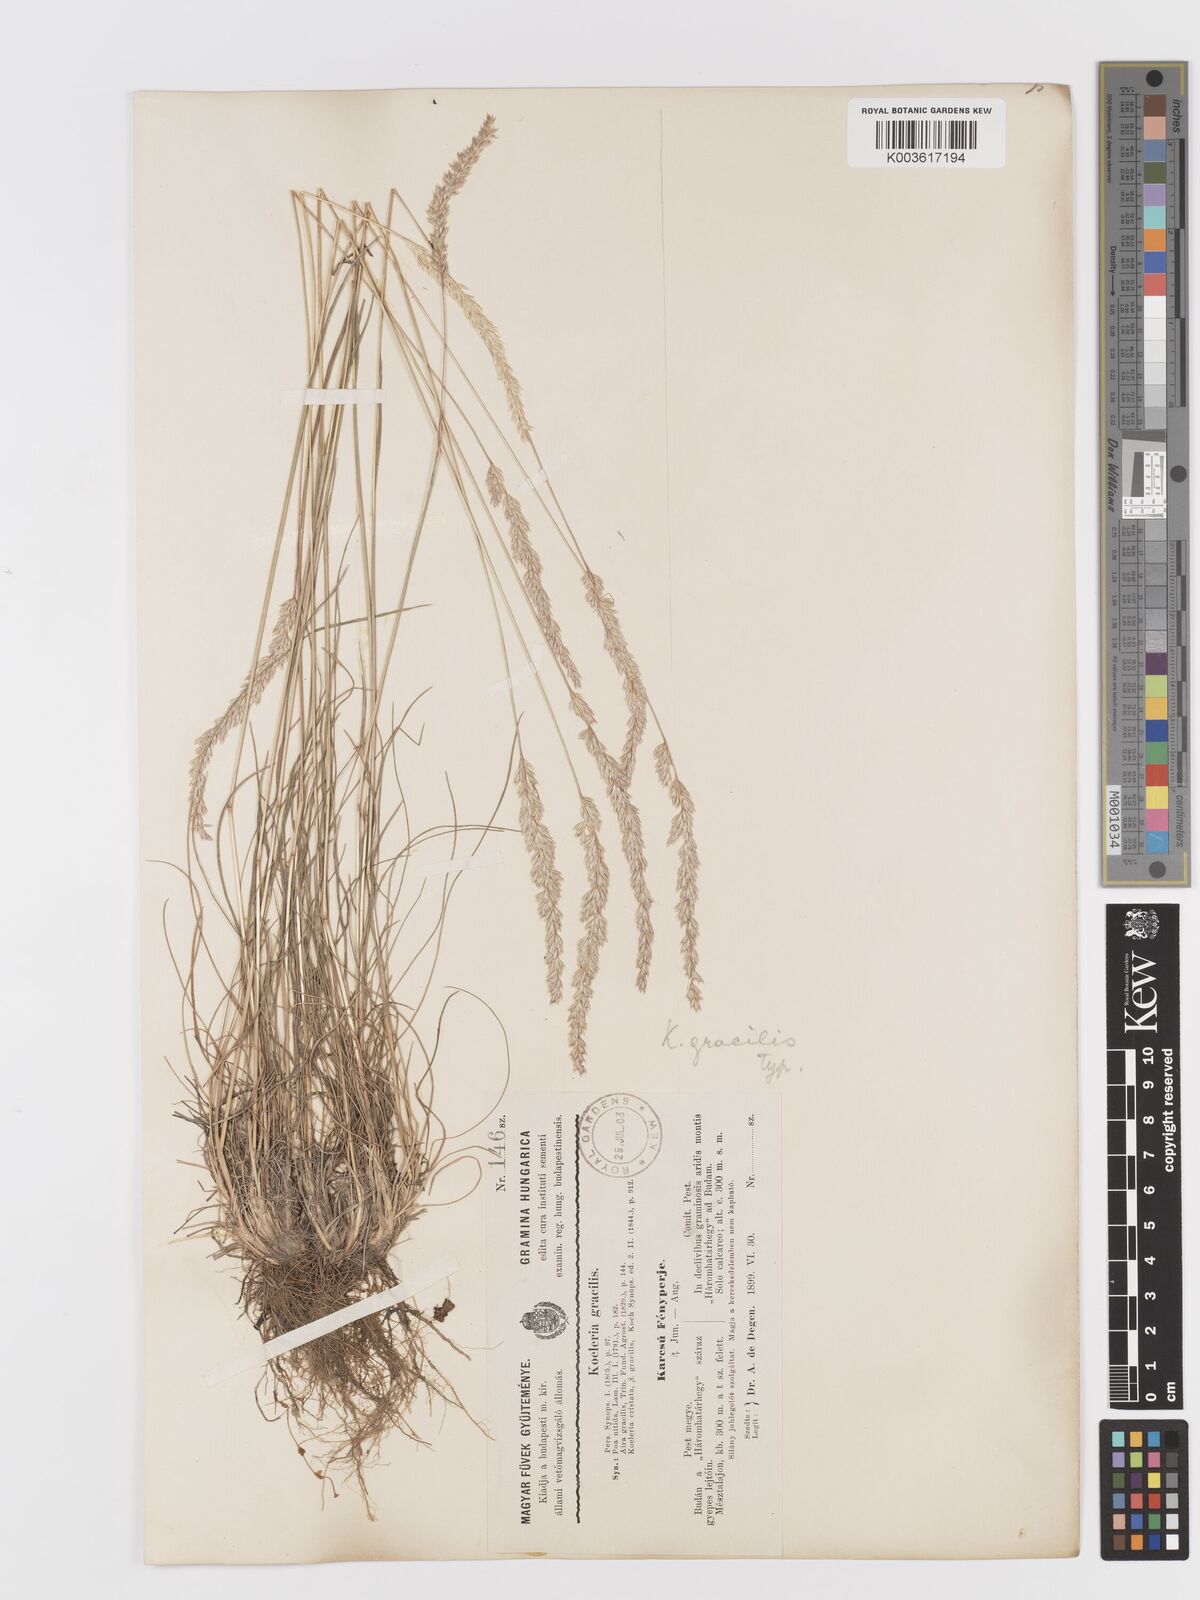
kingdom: Plantae
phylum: Tracheophyta
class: Liliopsida
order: Poales
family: Poaceae
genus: Koeleria
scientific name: Koeleria macrantha
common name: Crested hair-grass
